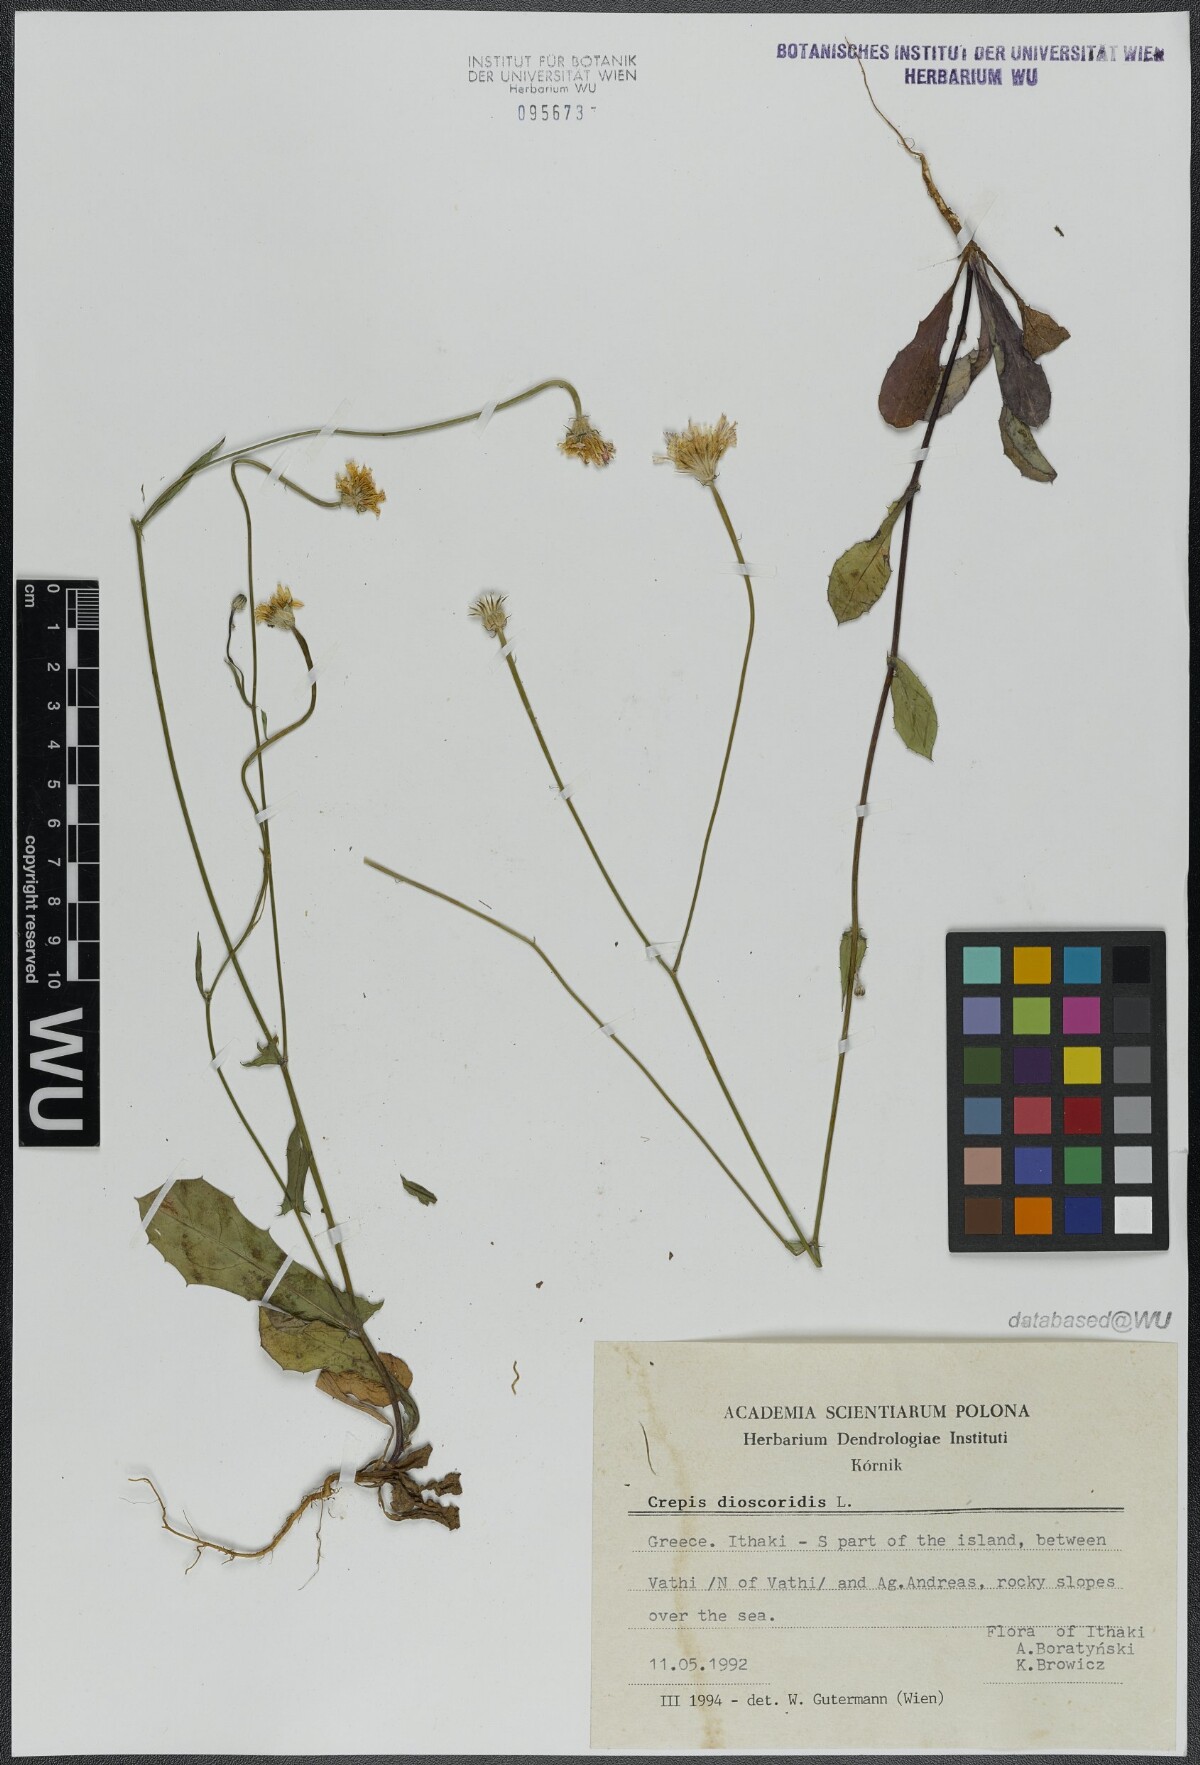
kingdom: Plantae
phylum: Tracheophyta
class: Magnoliopsida
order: Asterales
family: Asteraceae
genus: Crepis
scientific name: Crepis dioscoridis
